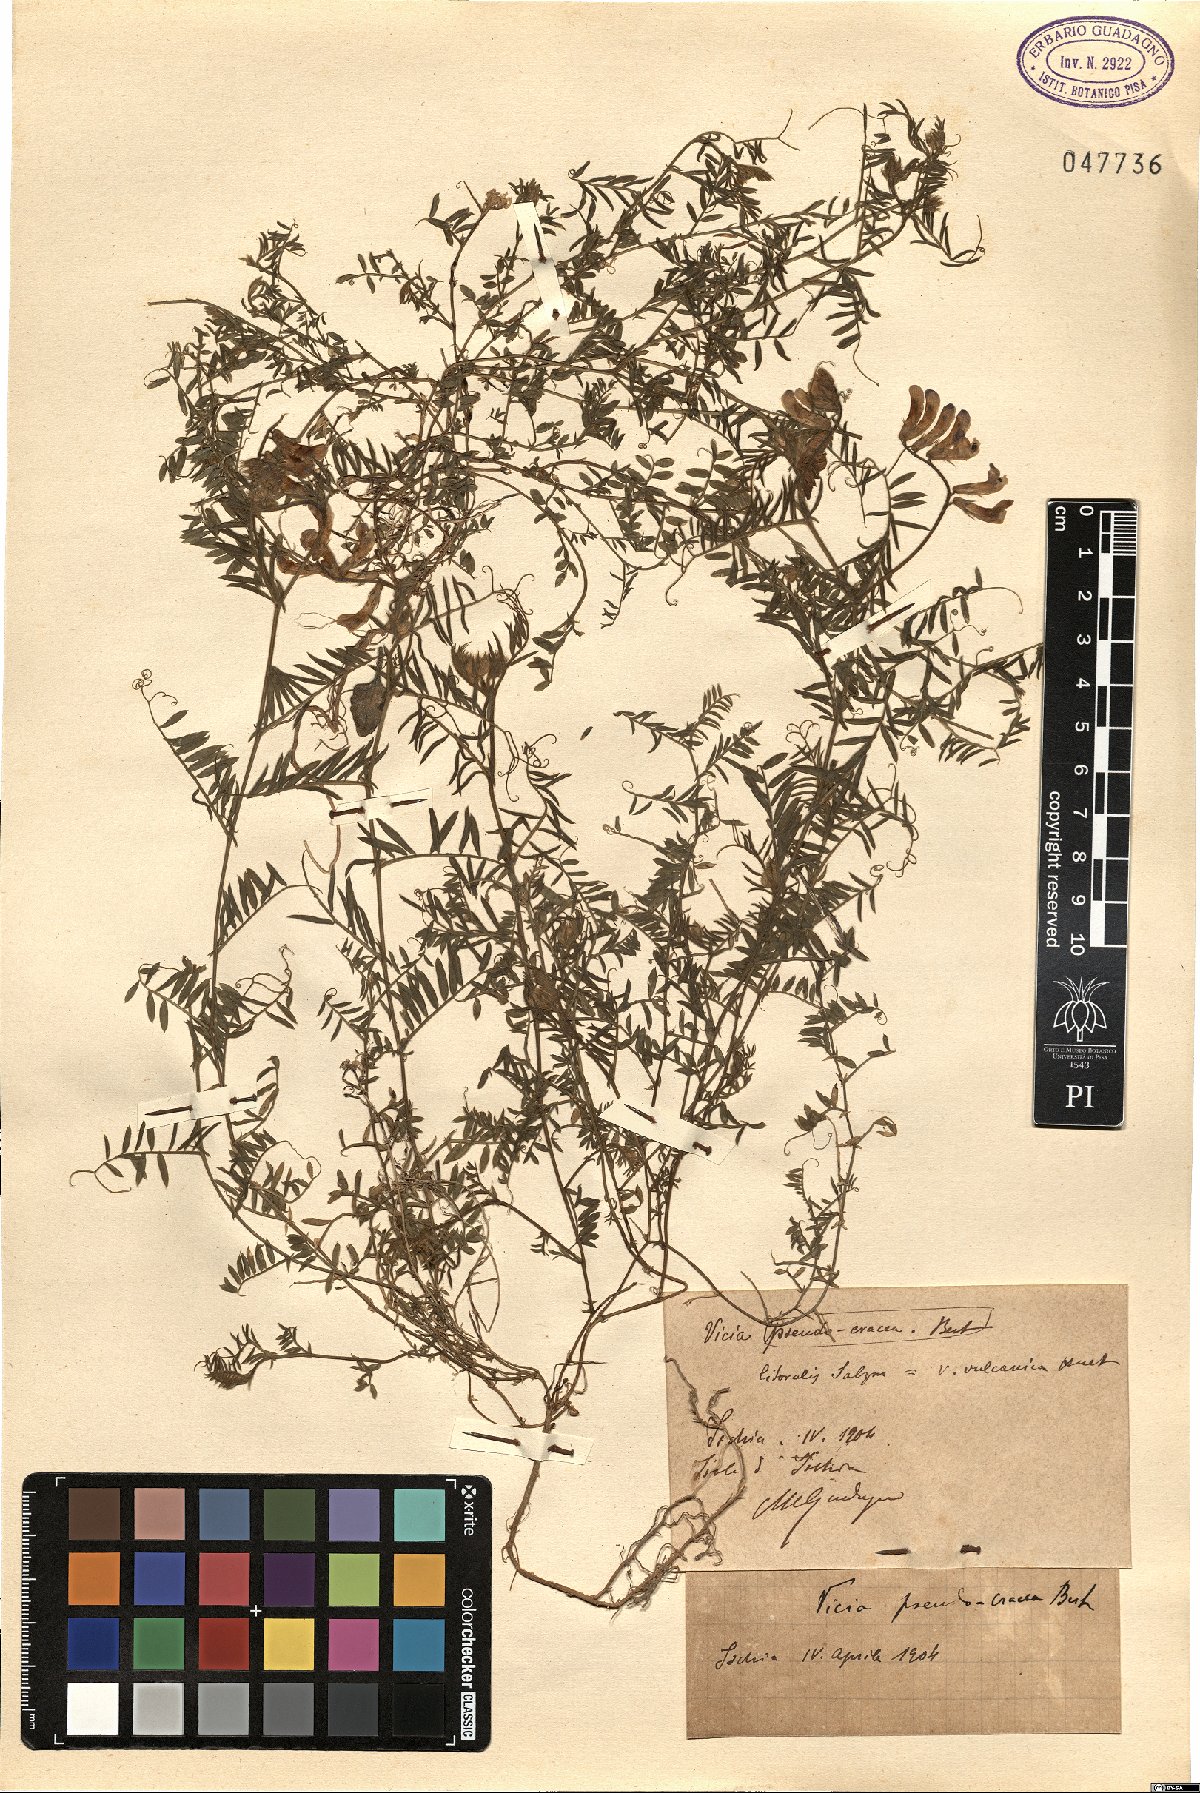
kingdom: Plantae
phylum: Tracheophyta
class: Magnoliopsida
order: Fabales
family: Fabaceae
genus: Vicia
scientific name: Vicia villosa
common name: Fodder vetch
